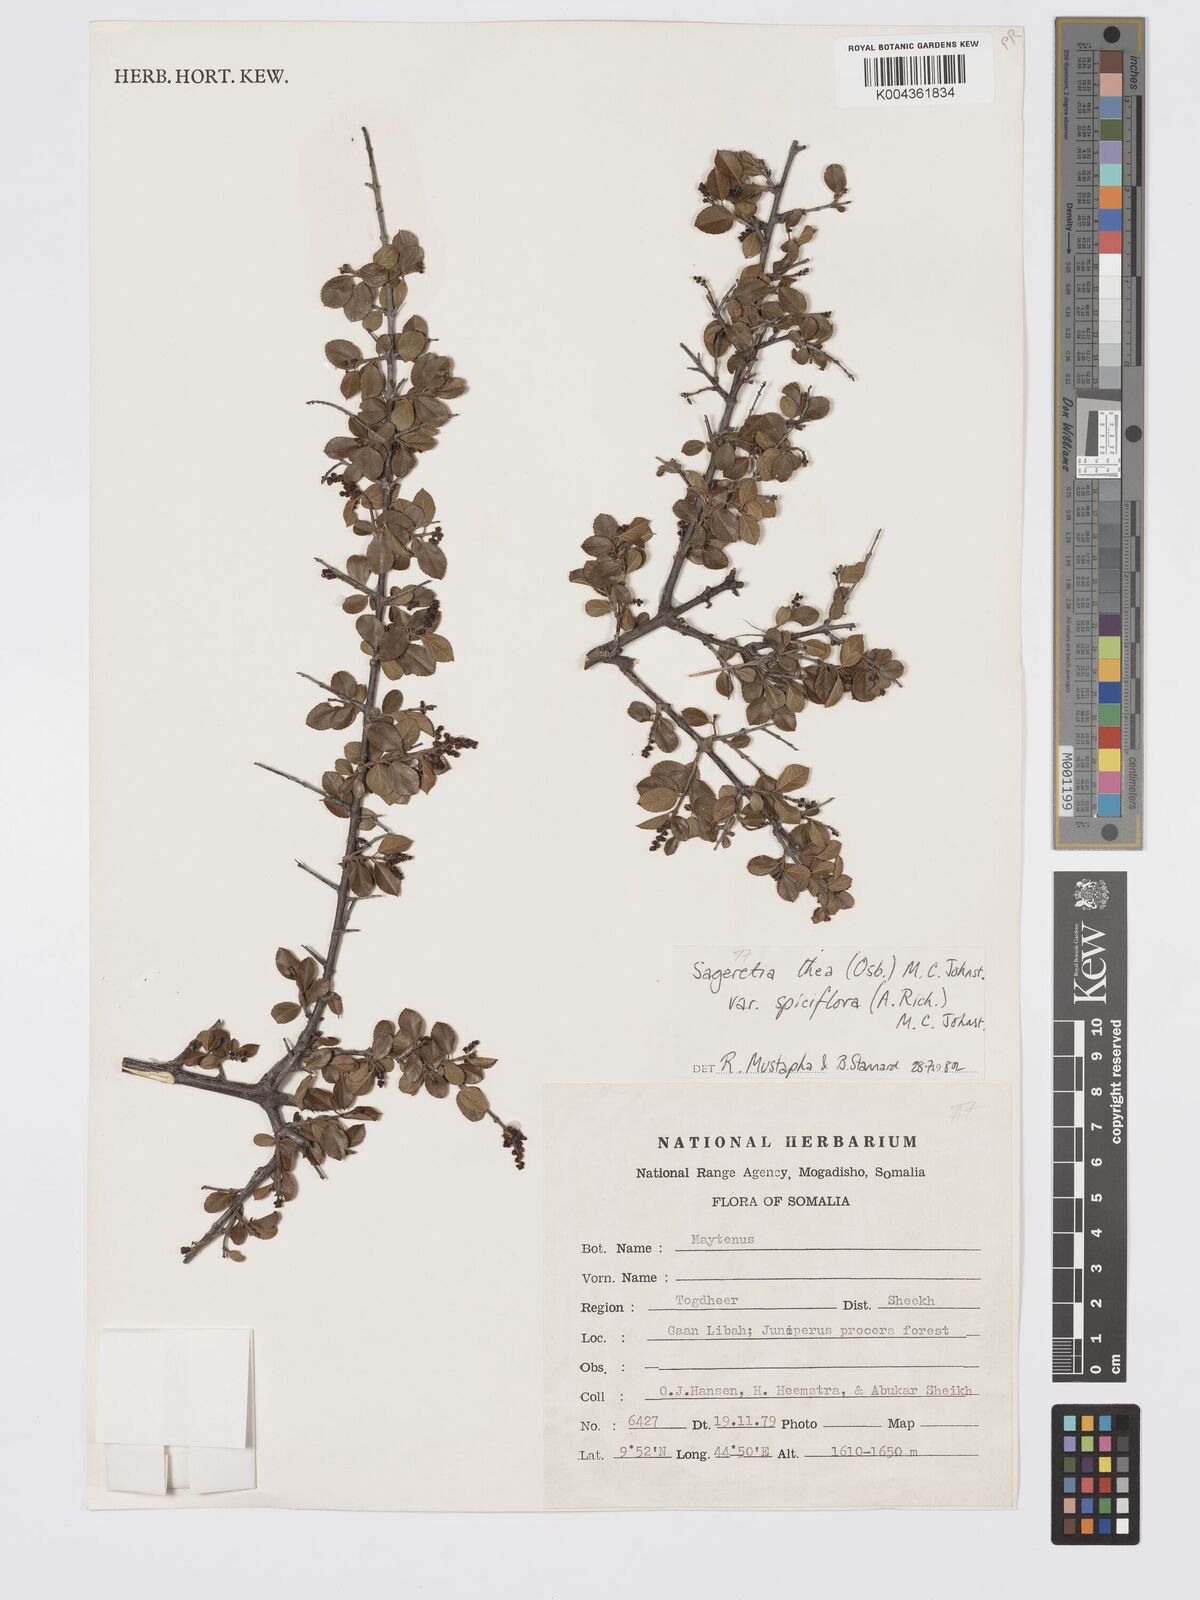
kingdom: Plantae
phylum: Tracheophyta
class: Magnoliopsida
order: Rosales
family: Rhamnaceae
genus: Sageretia
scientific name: Sageretia thea
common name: Pauper's-tea
